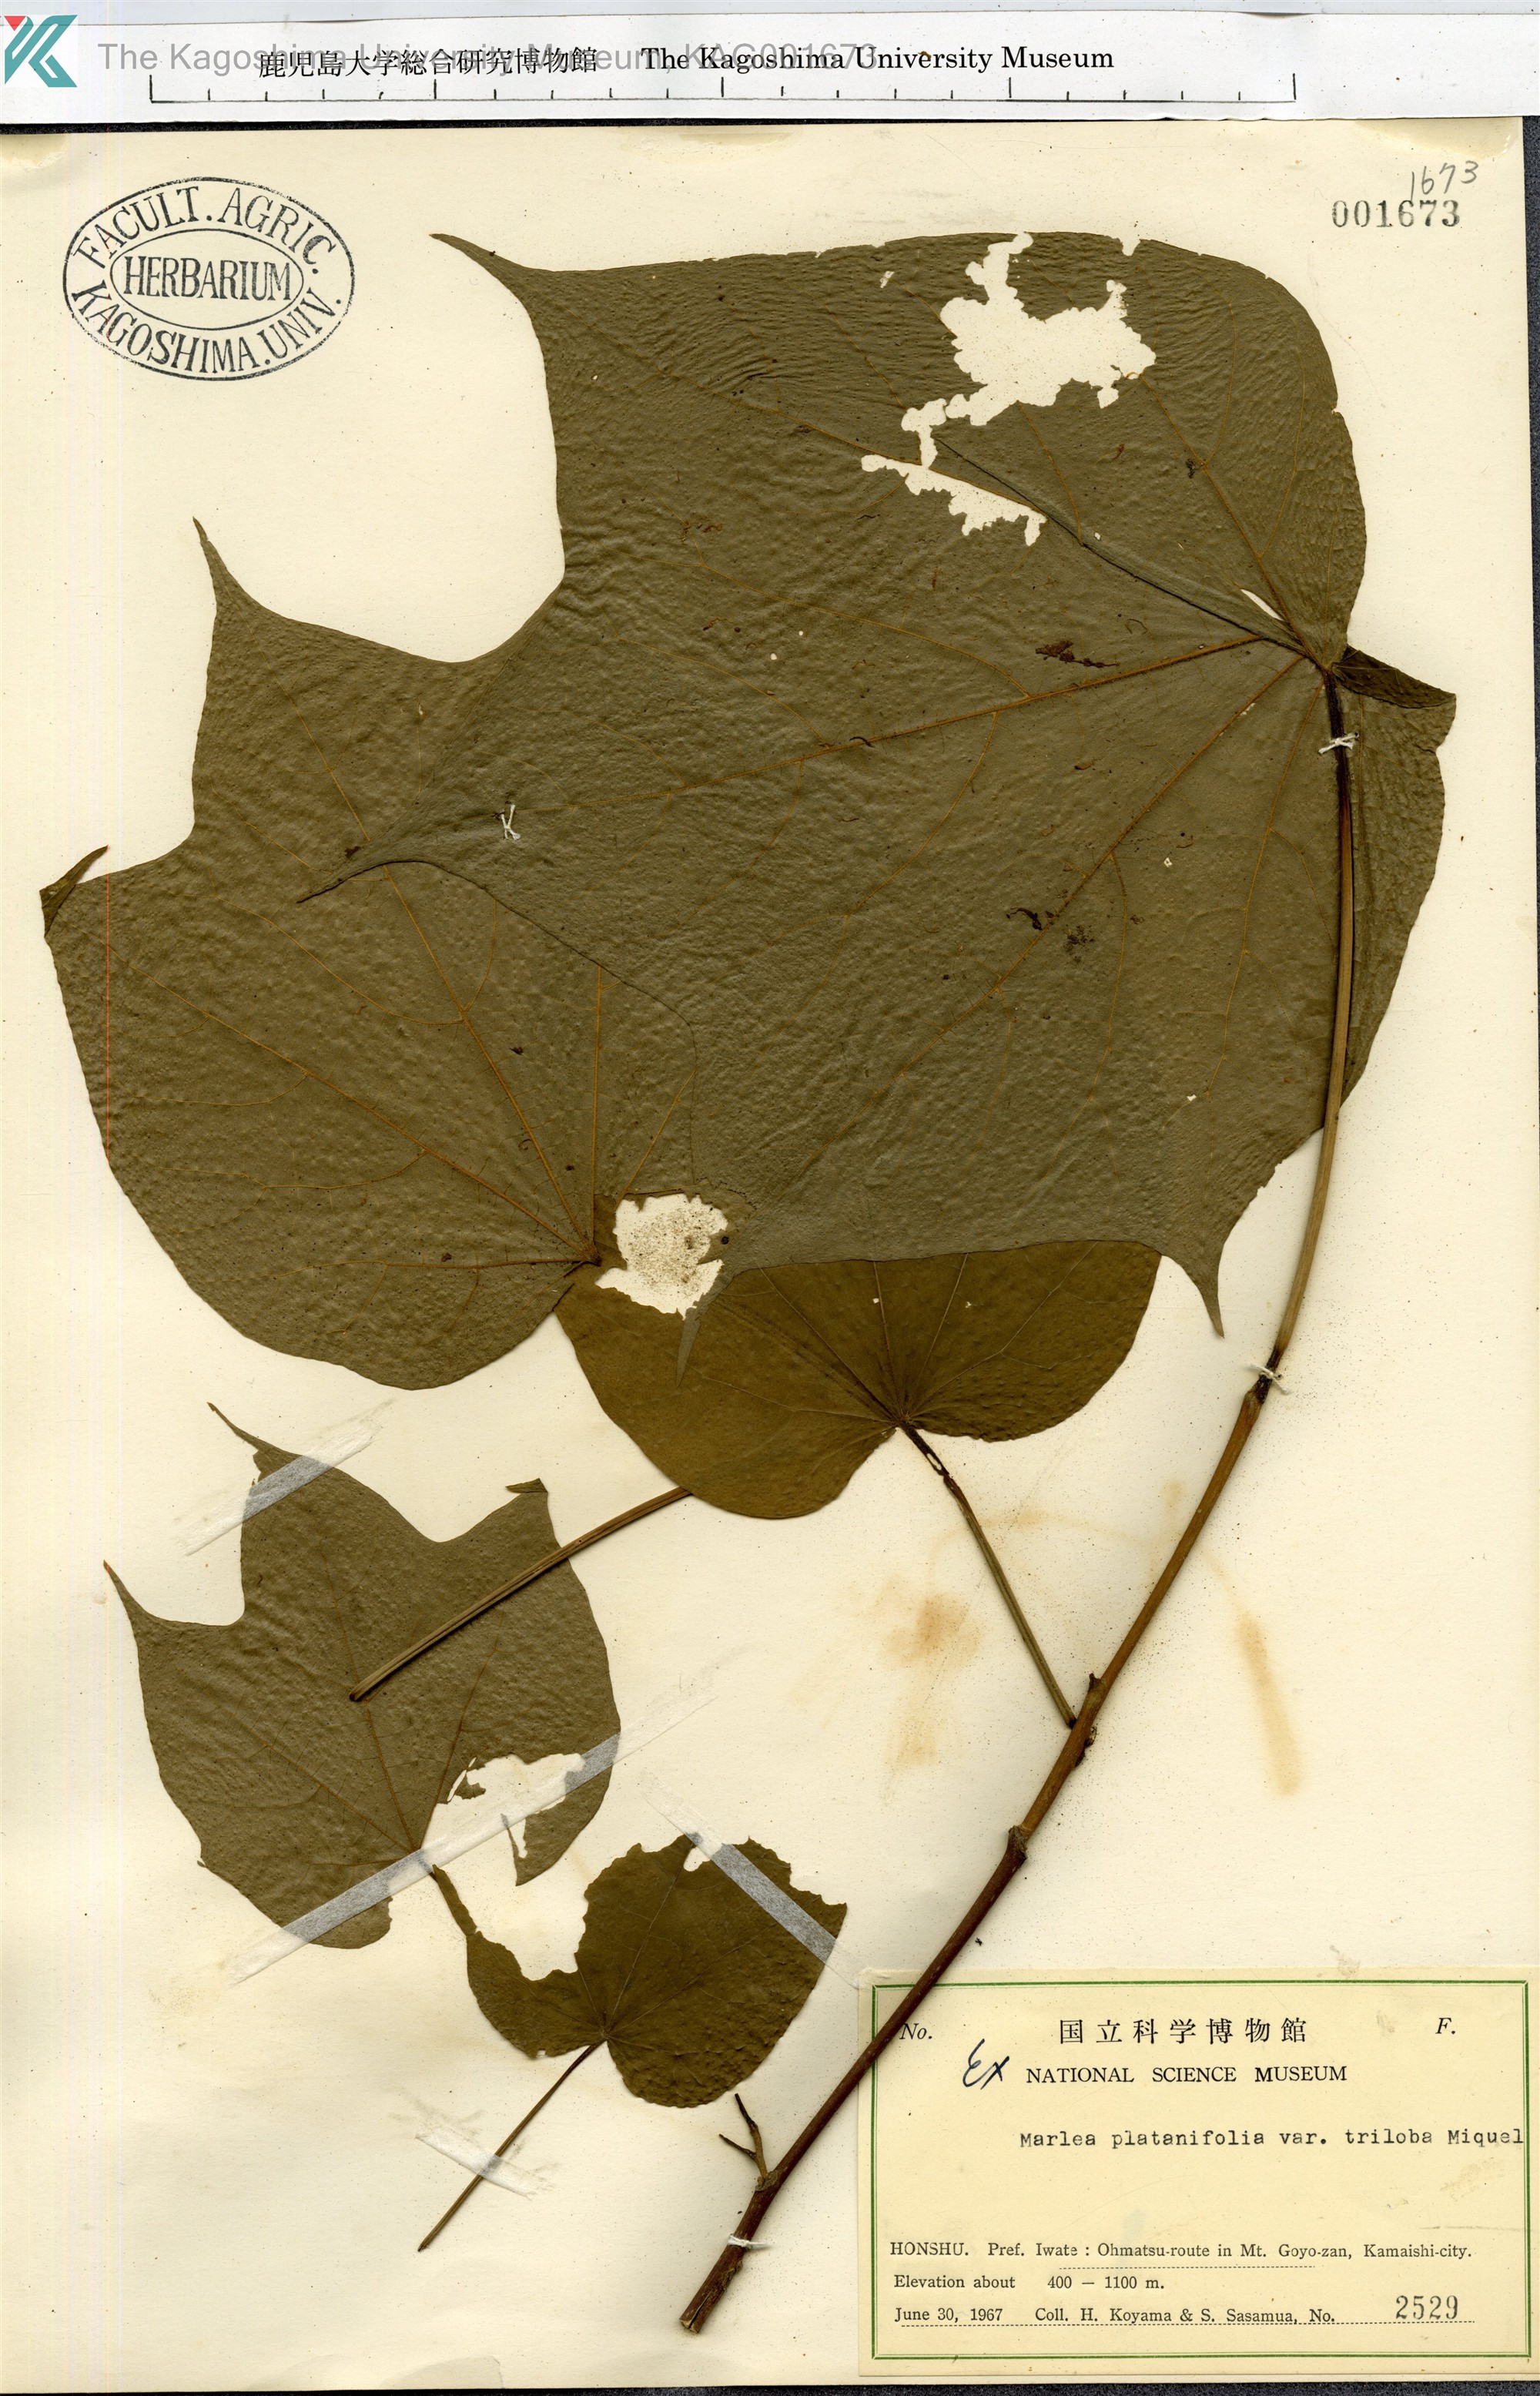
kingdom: Plantae
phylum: Tracheophyta
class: Magnoliopsida
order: Cornales
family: Cornaceae
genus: Alangium
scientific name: Alangium platanifolium
